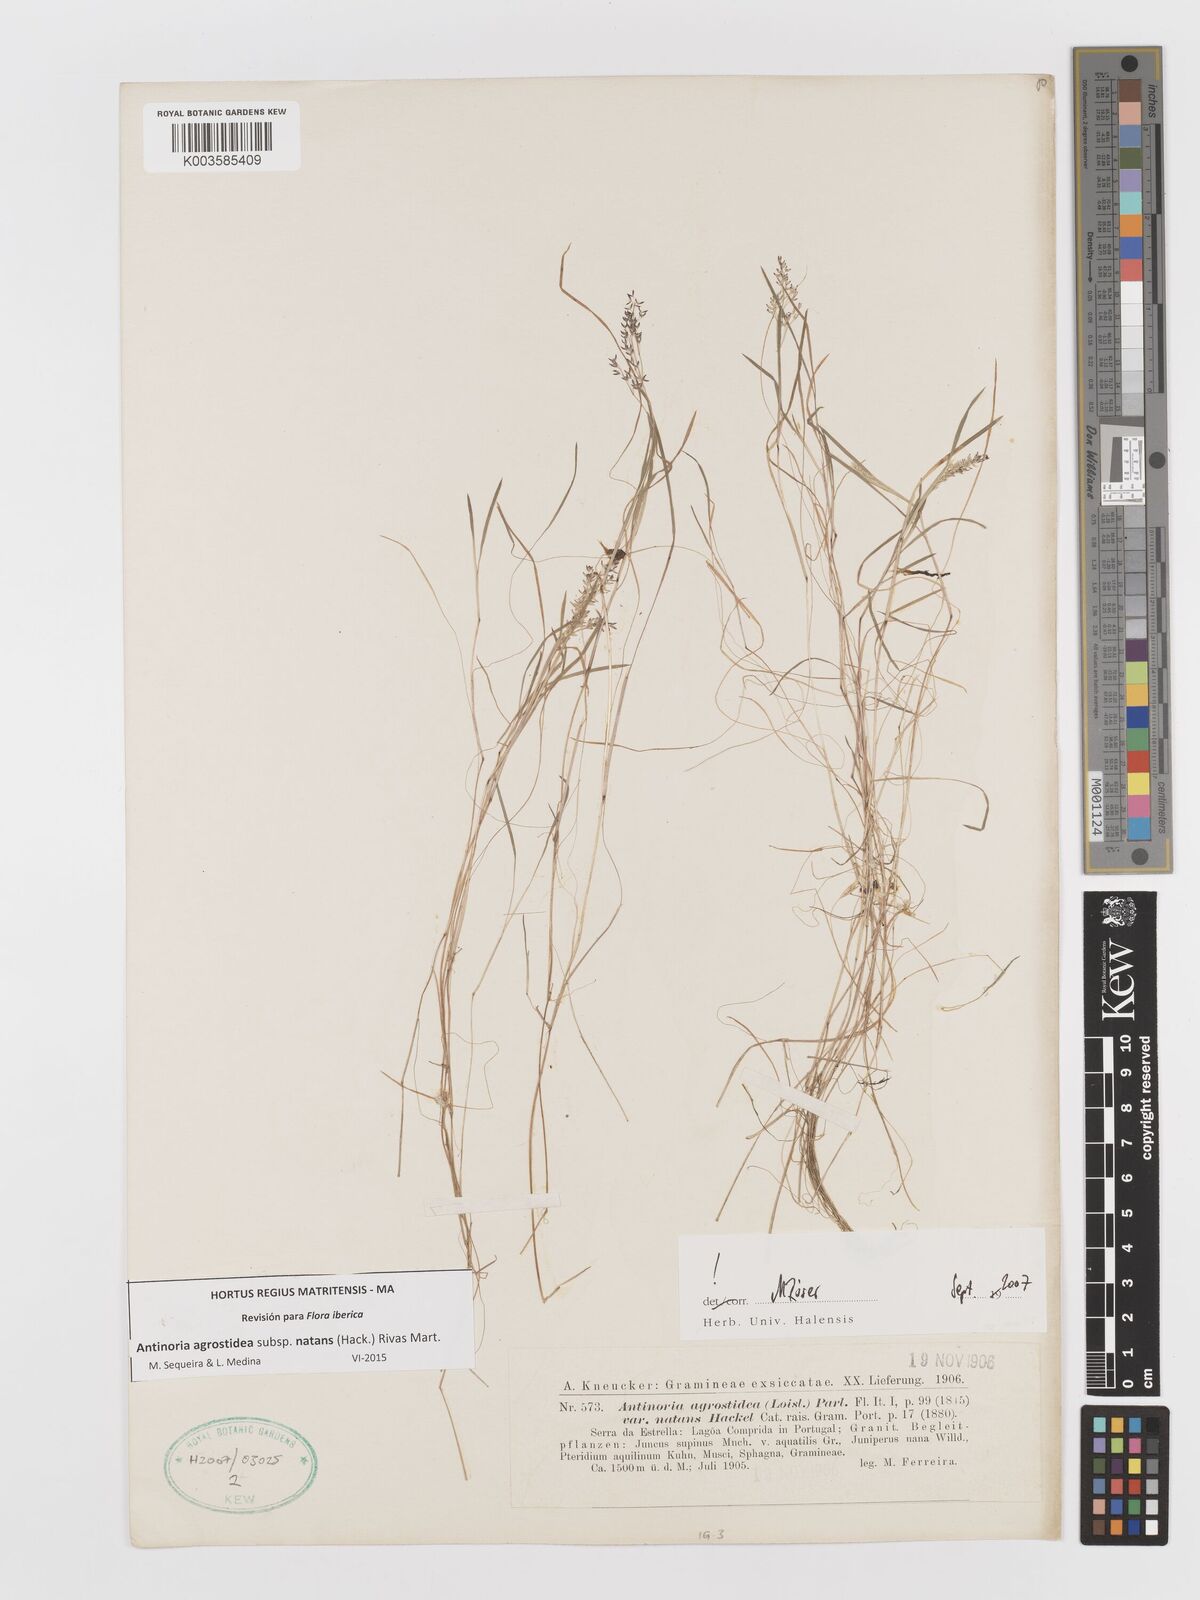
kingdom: Plantae
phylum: Tracheophyta
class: Liliopsida
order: Poales
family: Poaceae
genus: Antinoria
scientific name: Antinoria agrostidea
